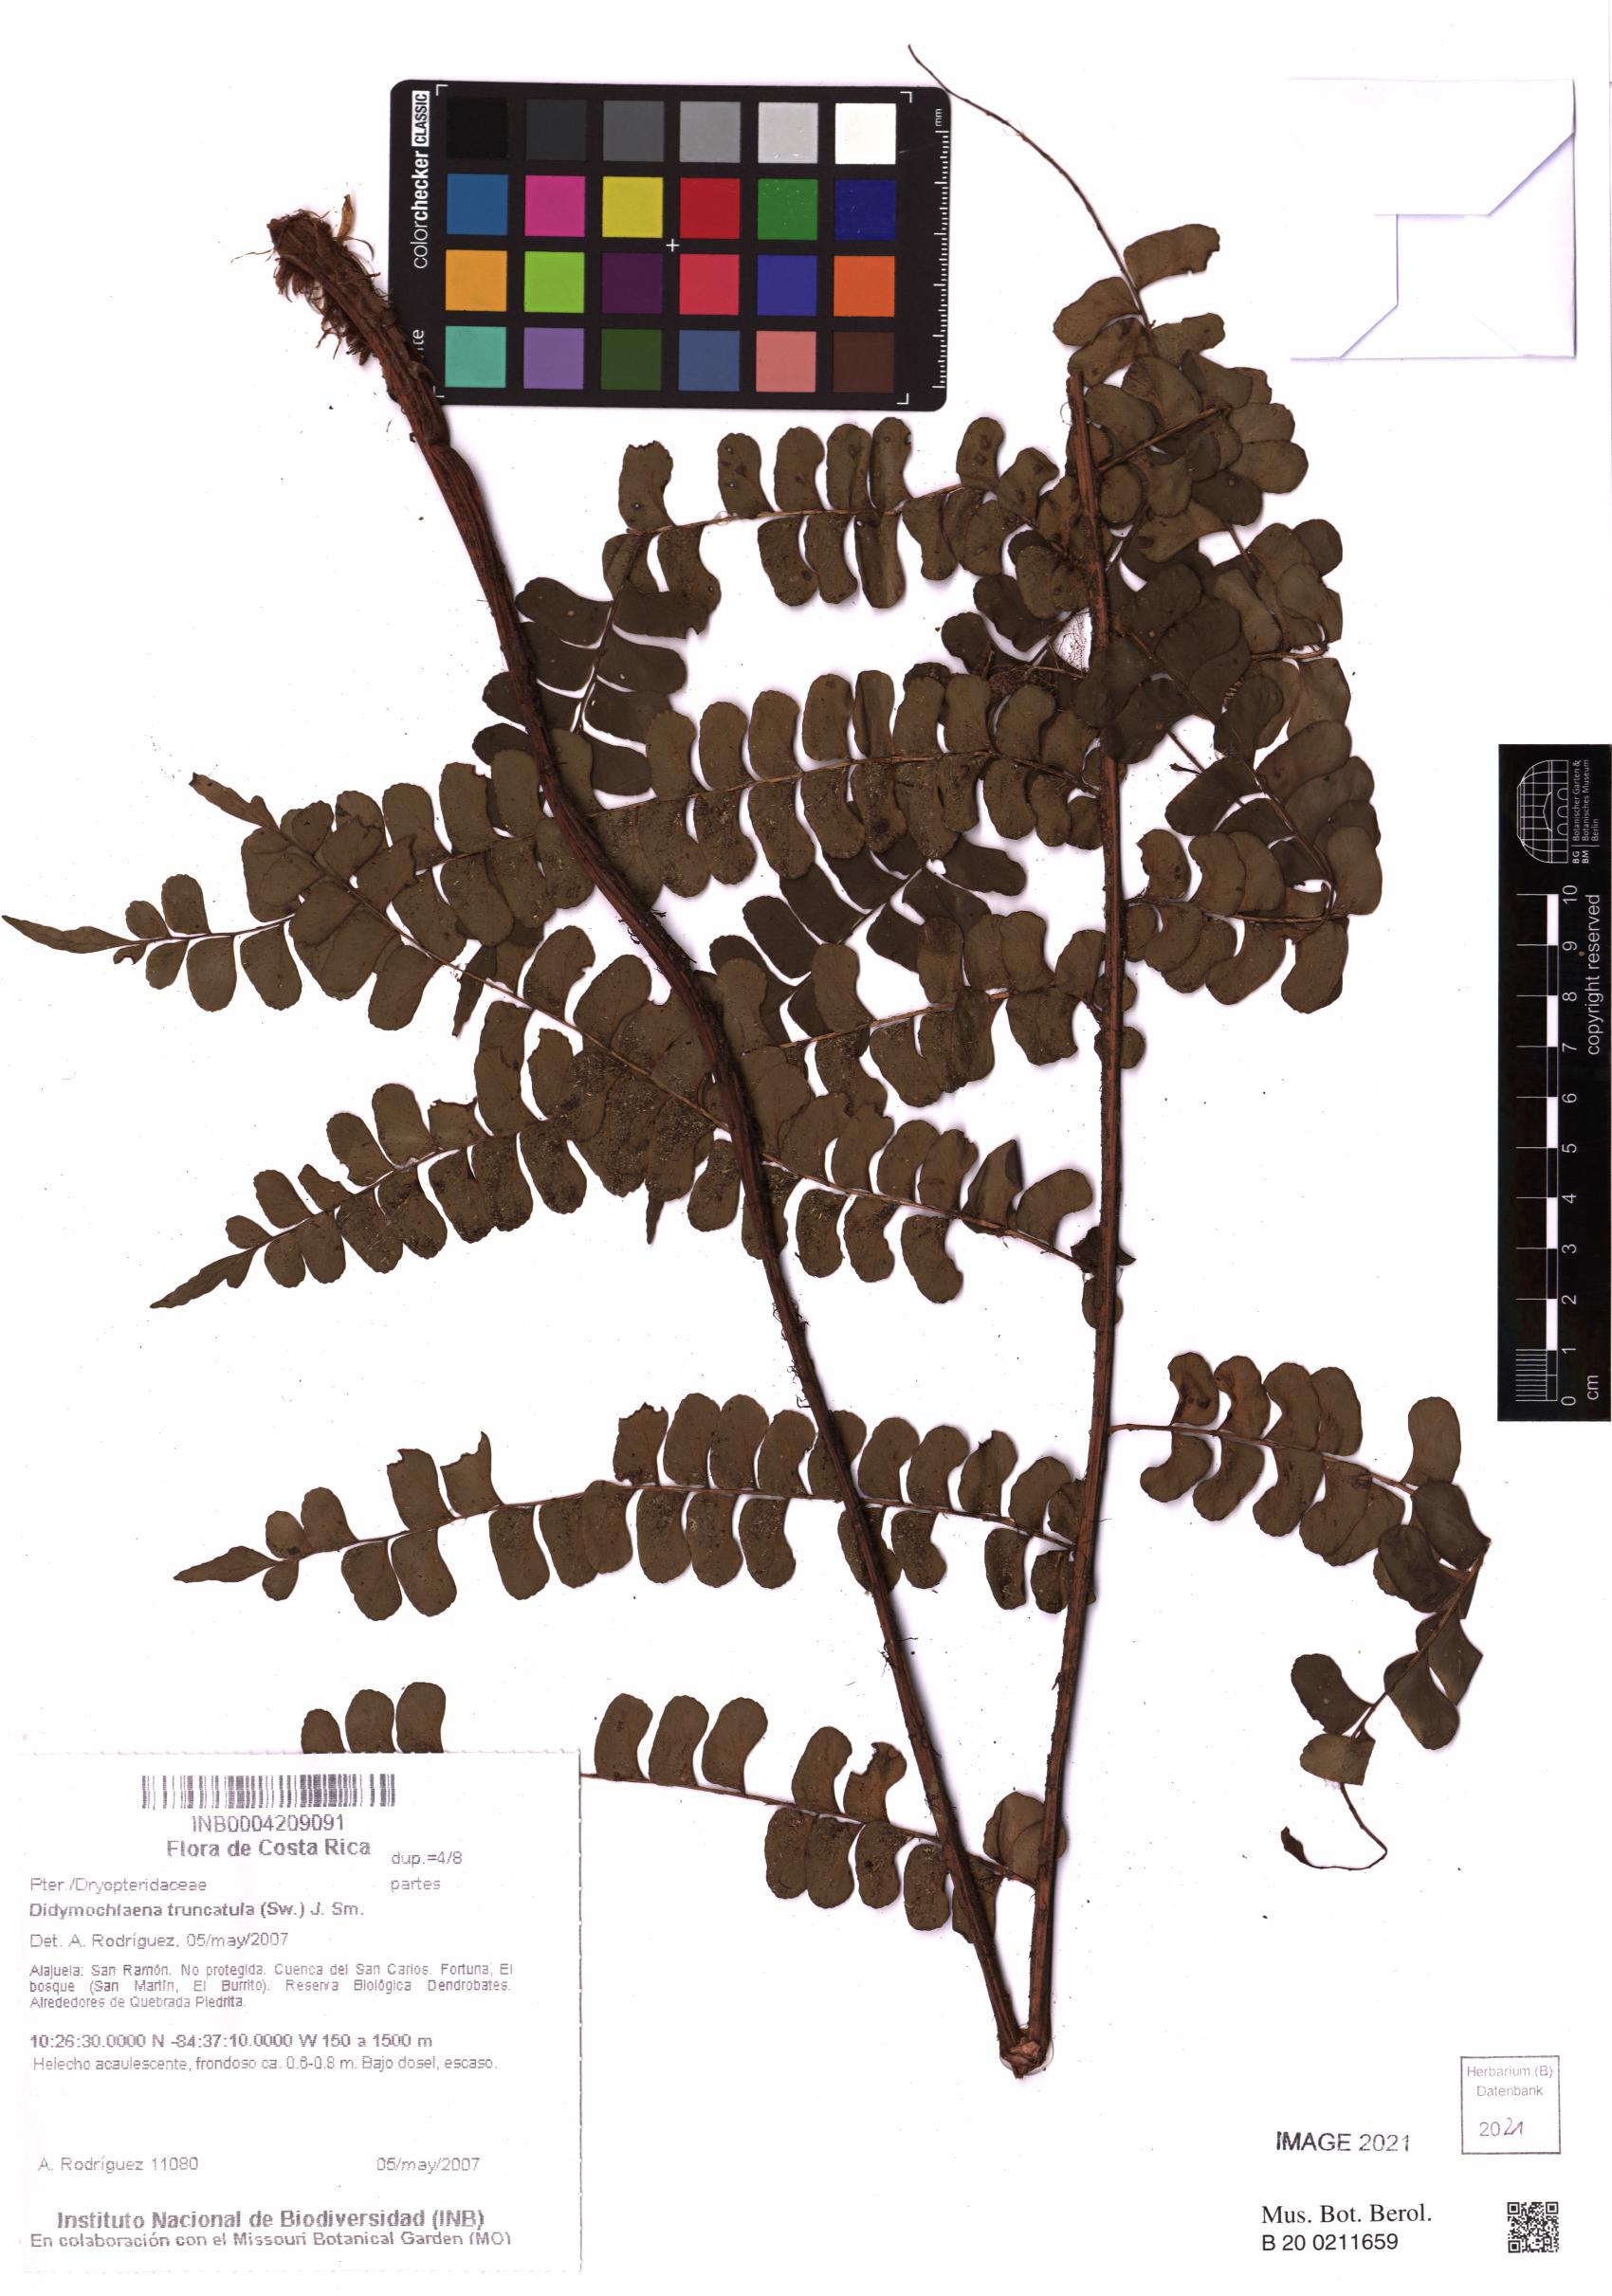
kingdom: Plantae
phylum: Tracheophyta
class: Polypodiopsida
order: Polypodiales
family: Didymochlaenaceae
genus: Didymochlaena
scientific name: Didymochlaena truncatula
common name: Mahogany fern
